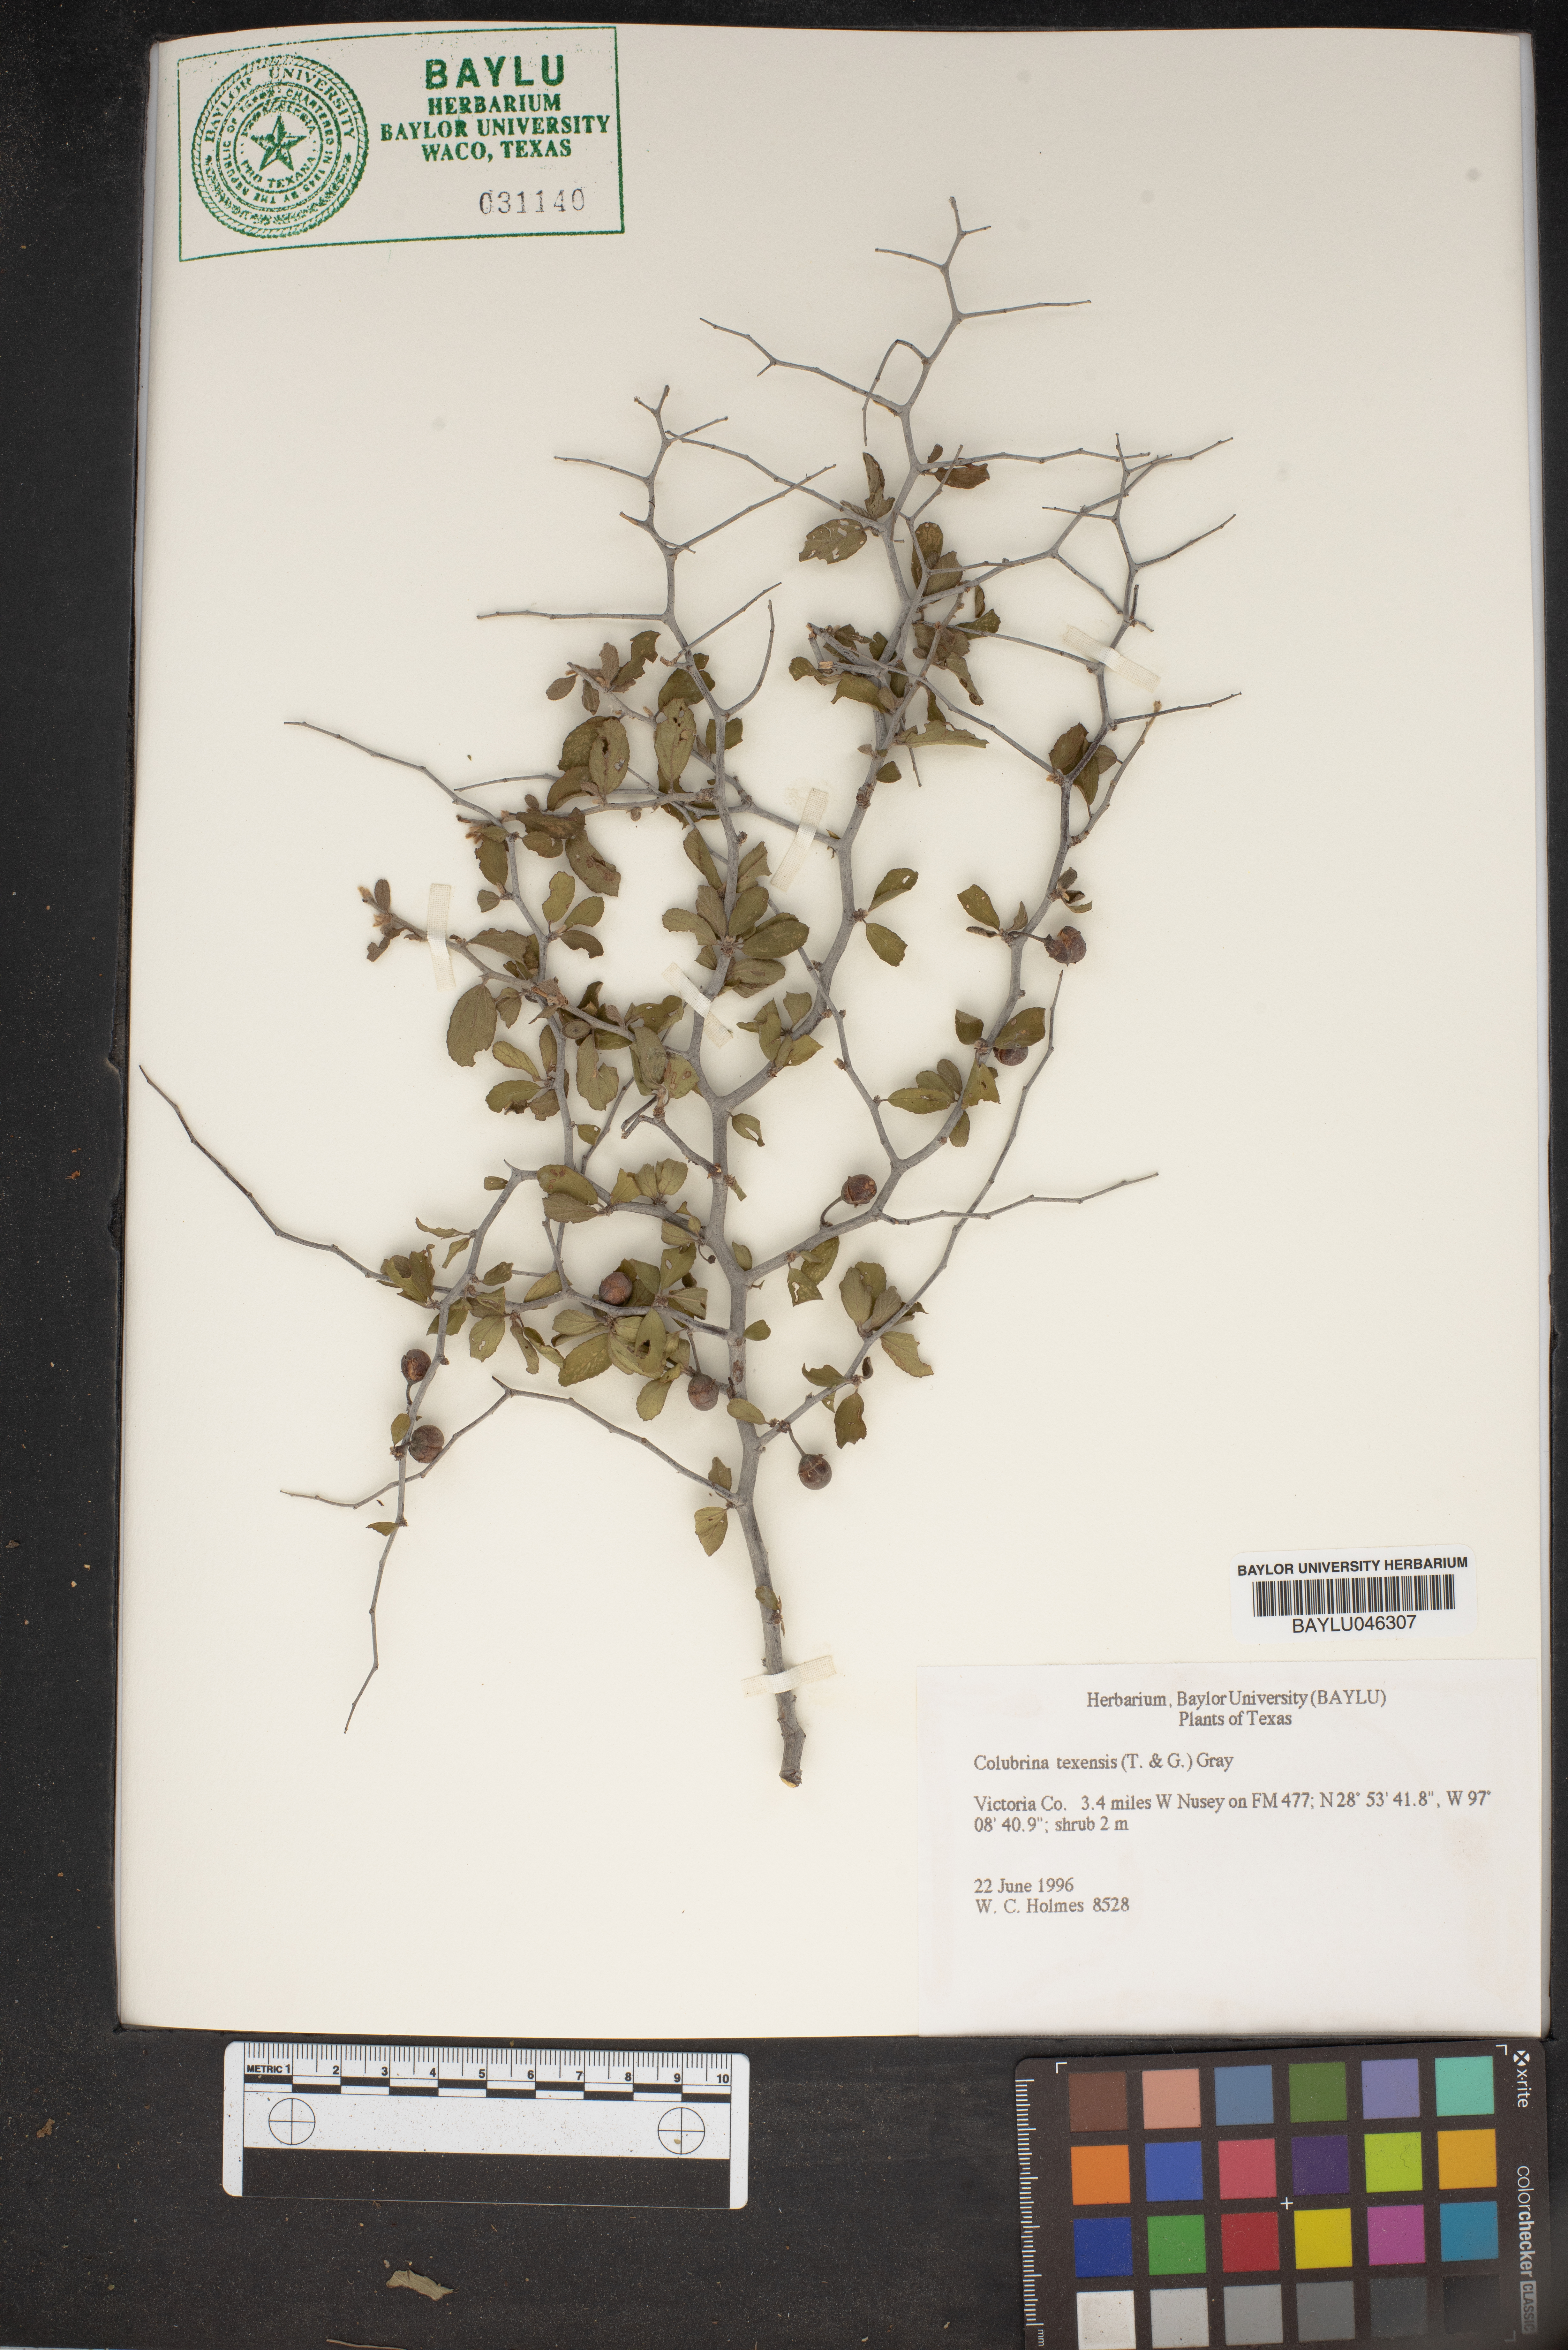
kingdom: Plantae
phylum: Tracheophyta
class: Magnoliopsida
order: Rosales
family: Rhamnaceae
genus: Colubrina
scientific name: Colubrina texensis
